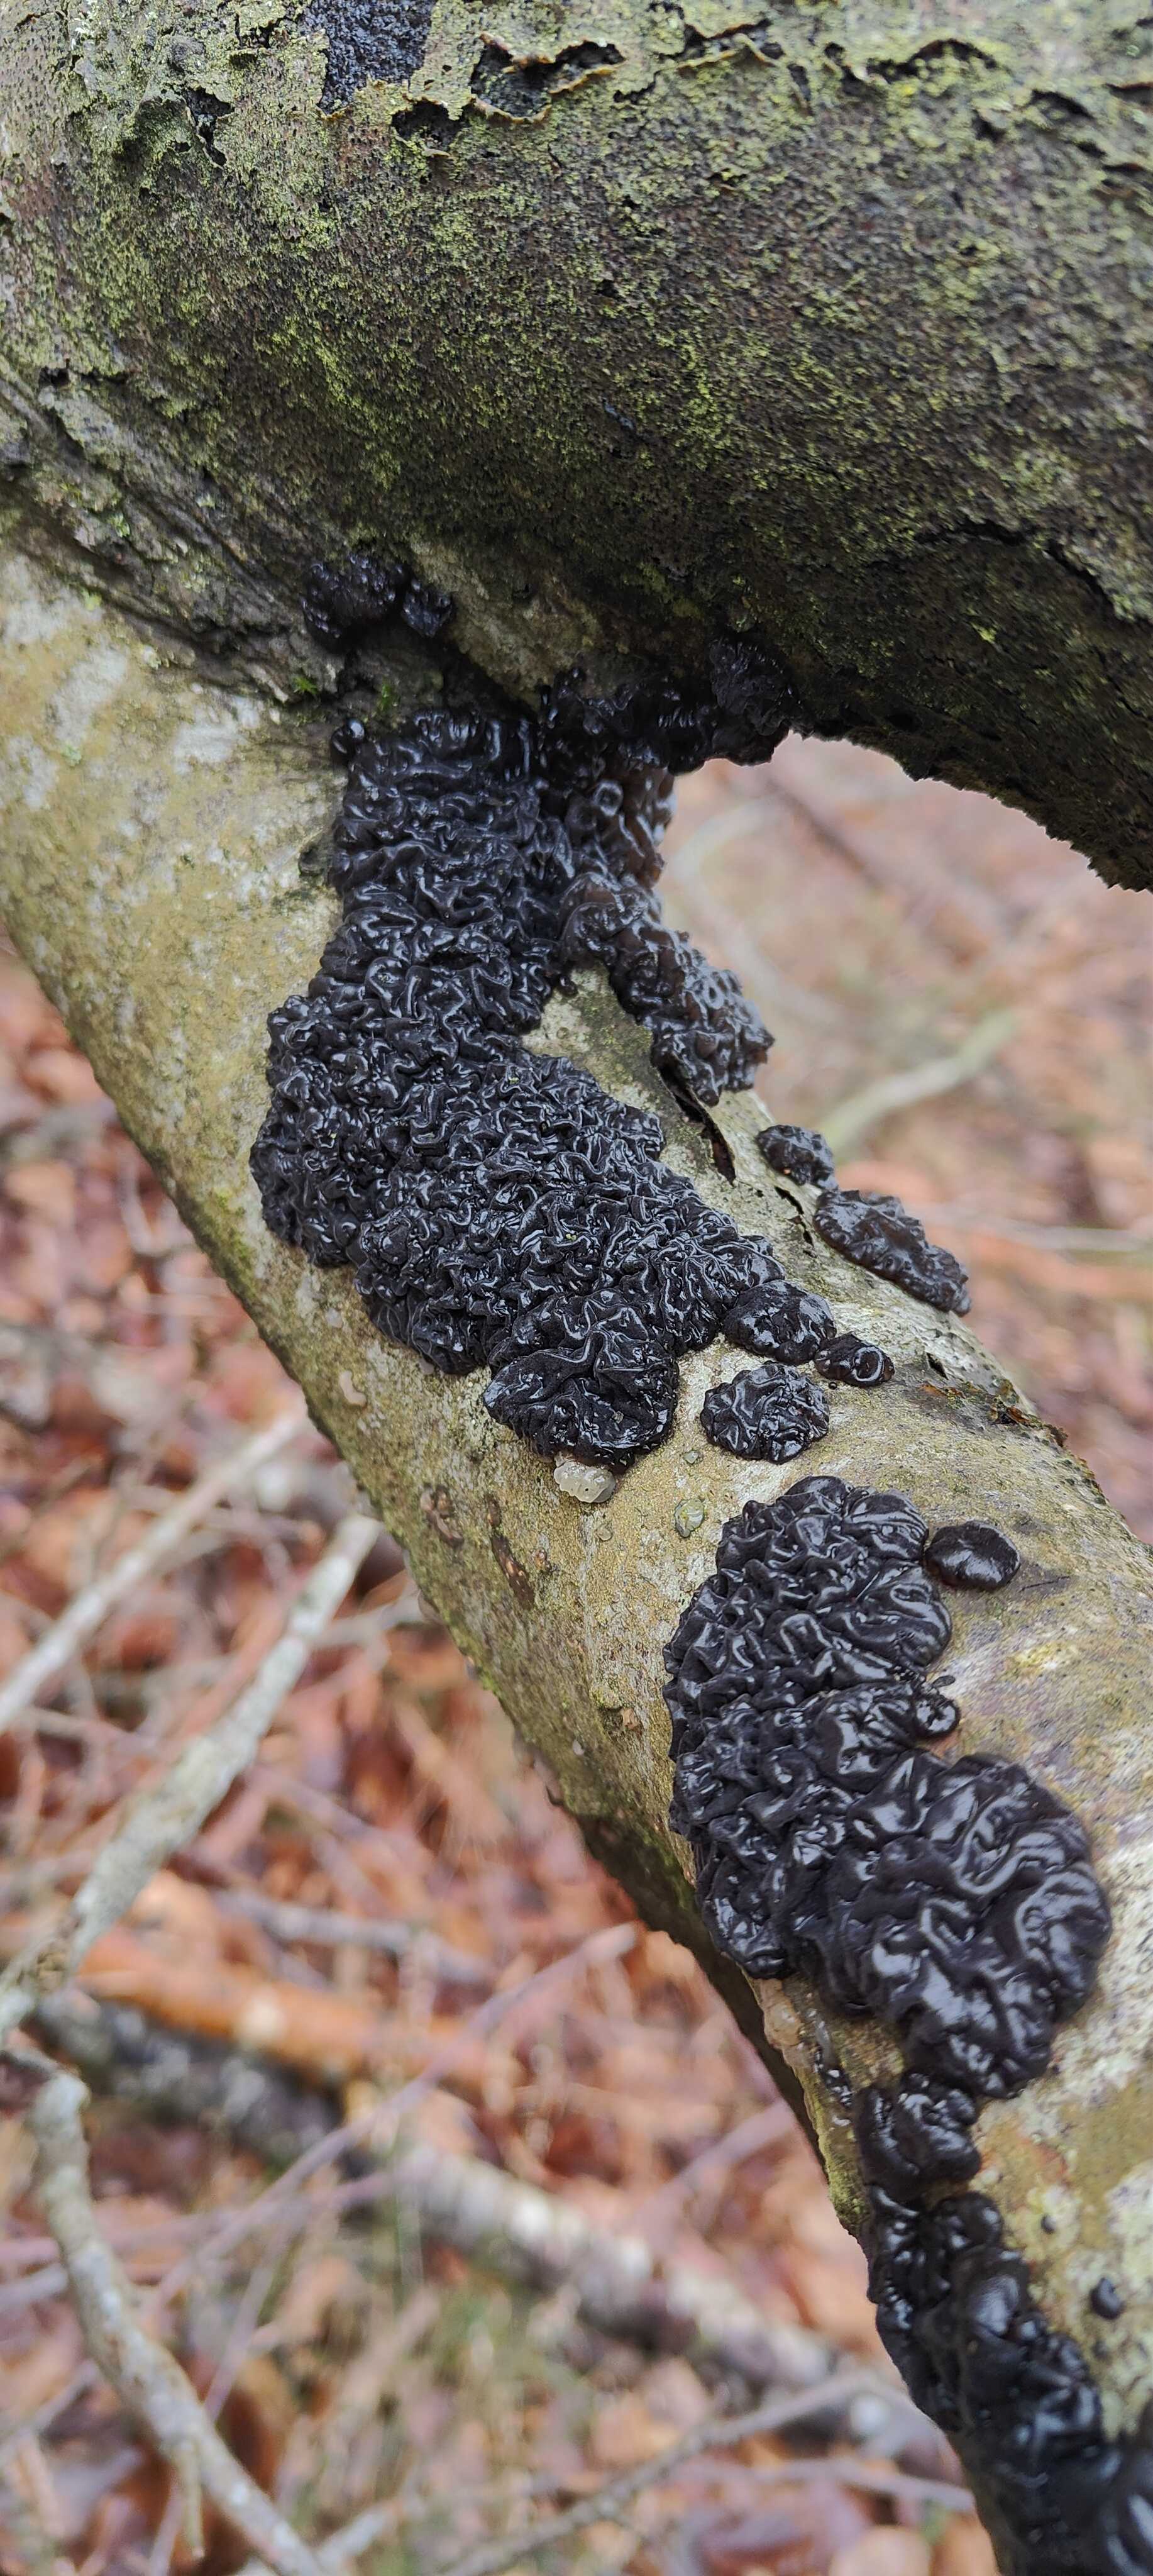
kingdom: Fungi
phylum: Basidiomycota
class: Agaricomycetes
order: Auriculariales
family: Auriculariaceae
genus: Exidia
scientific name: Exidia nigricans
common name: almindelig bævretop
